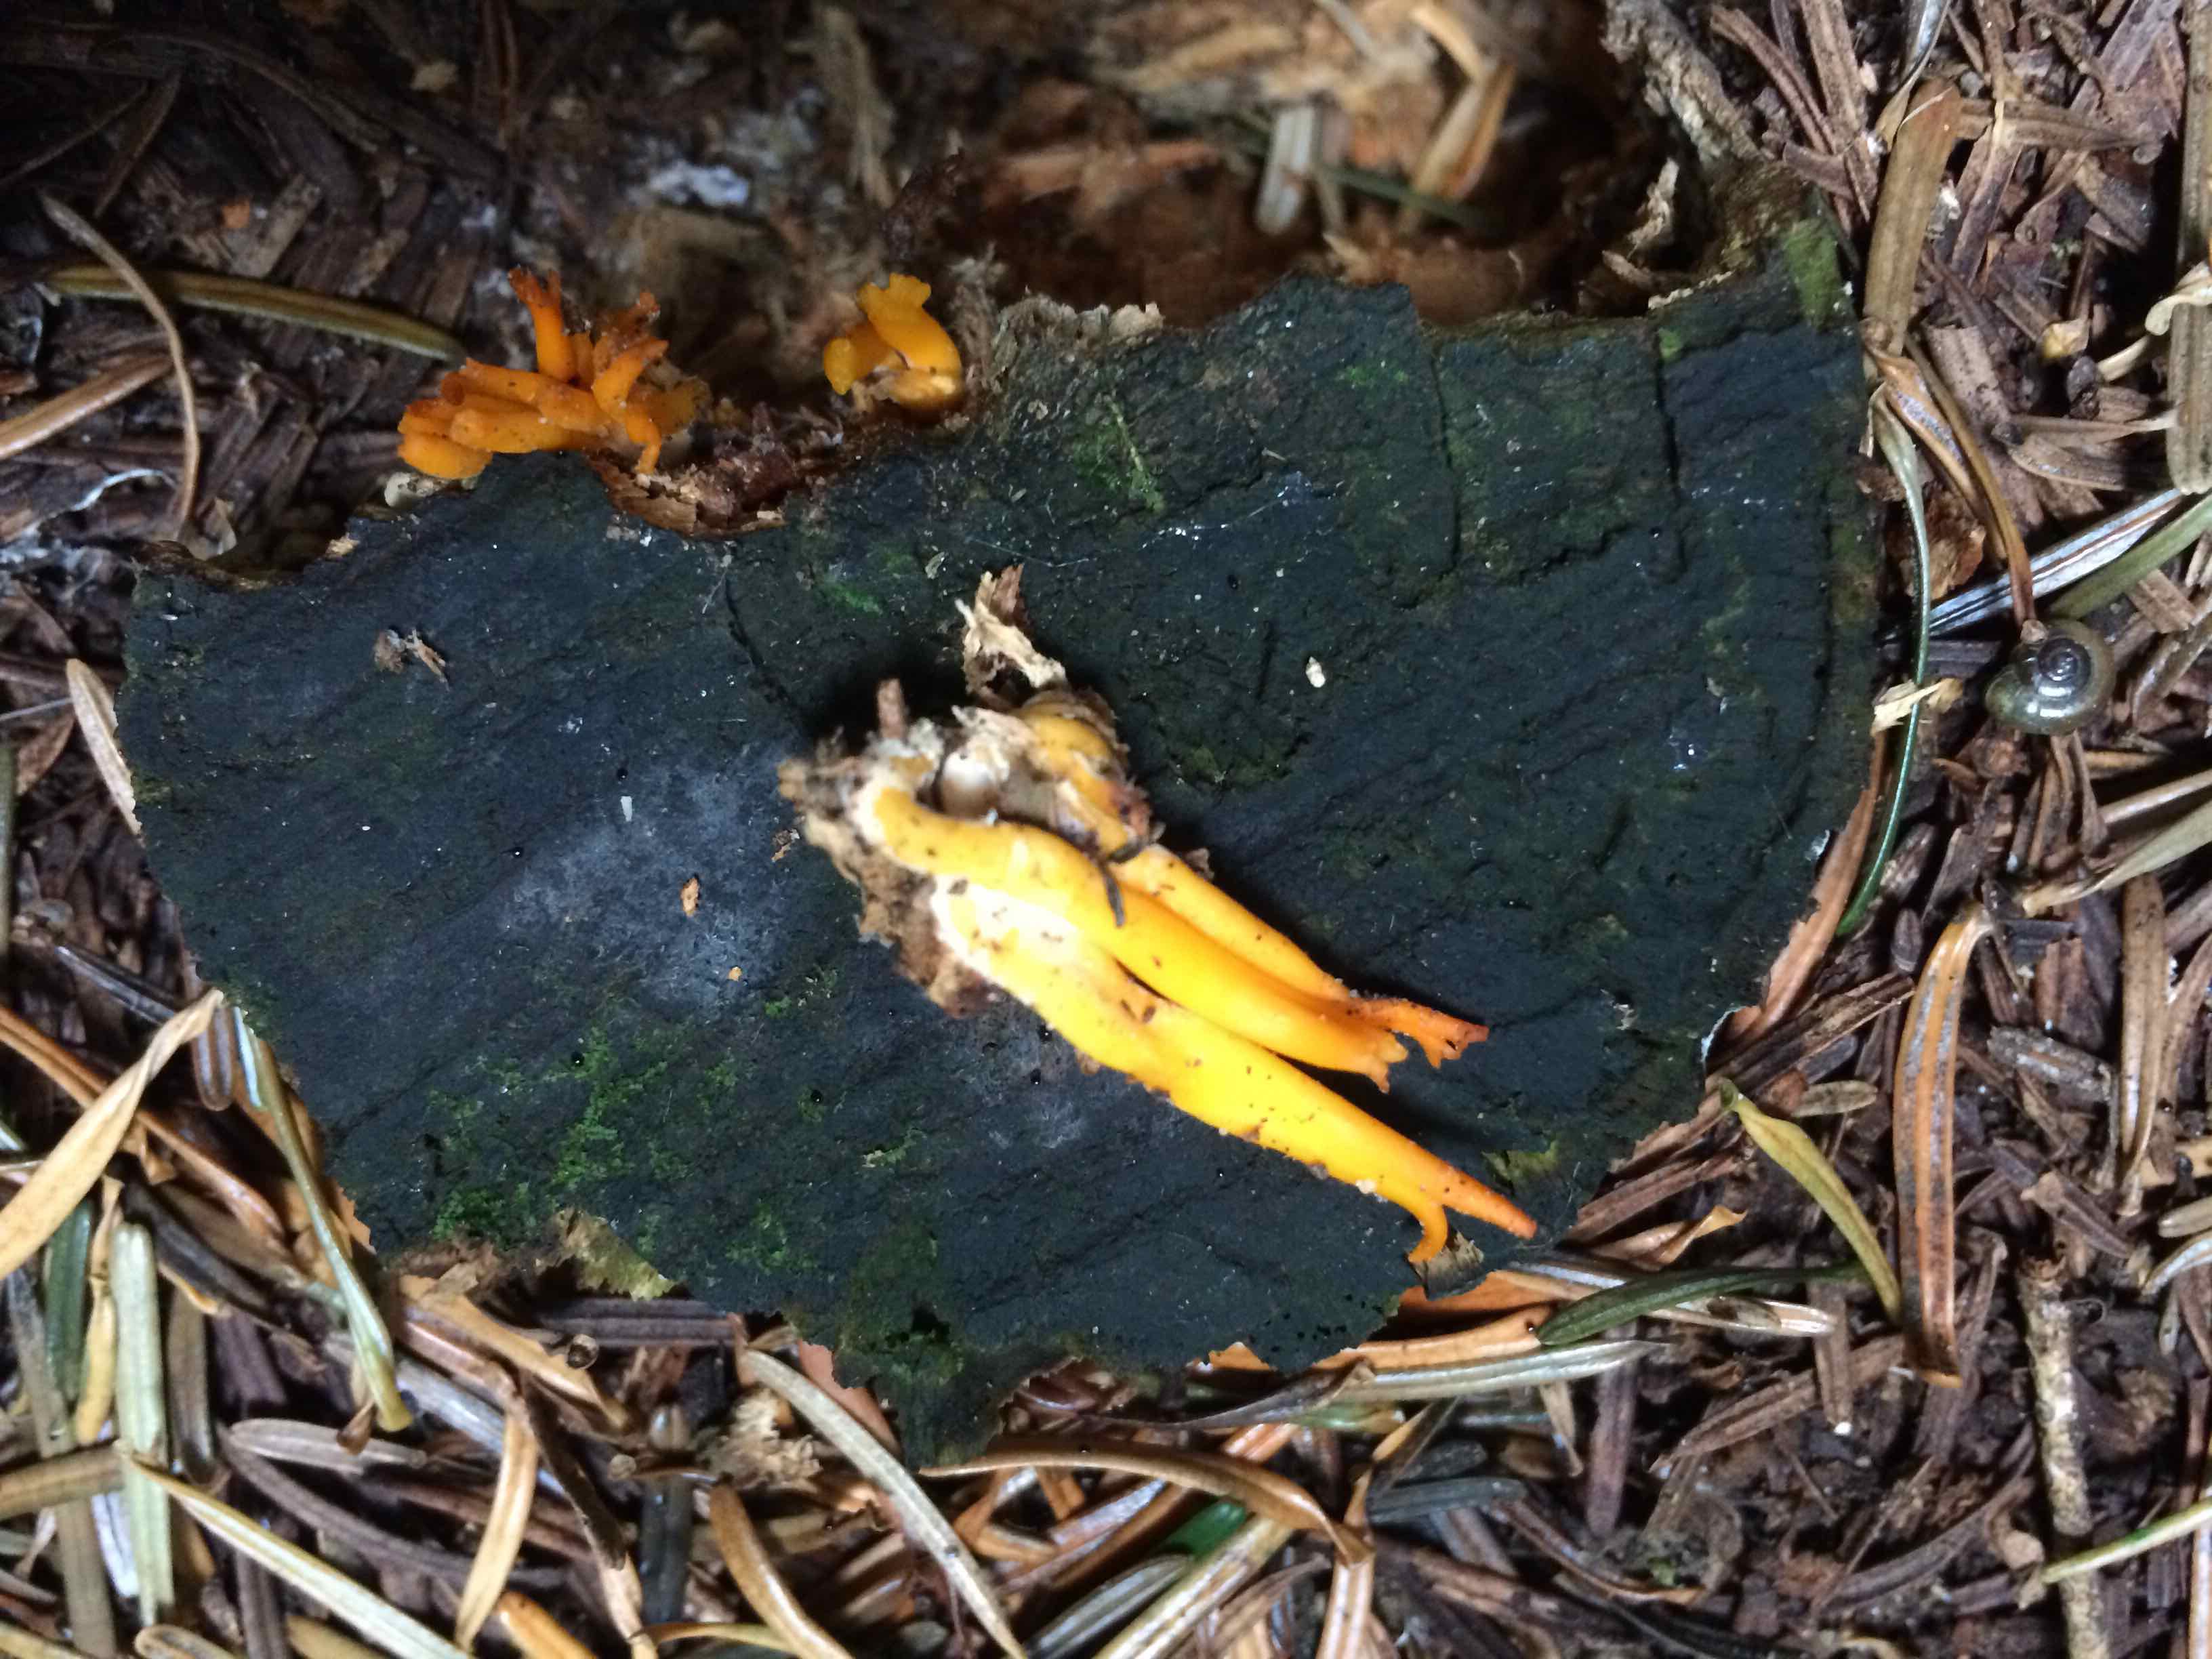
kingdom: Fungi
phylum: Basidiomycota
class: Dacrymycetes
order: Dacrymycetales
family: Dacrymycetaceae
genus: Calocera
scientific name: Calocera viscosa
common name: almindelig guldgaffel
